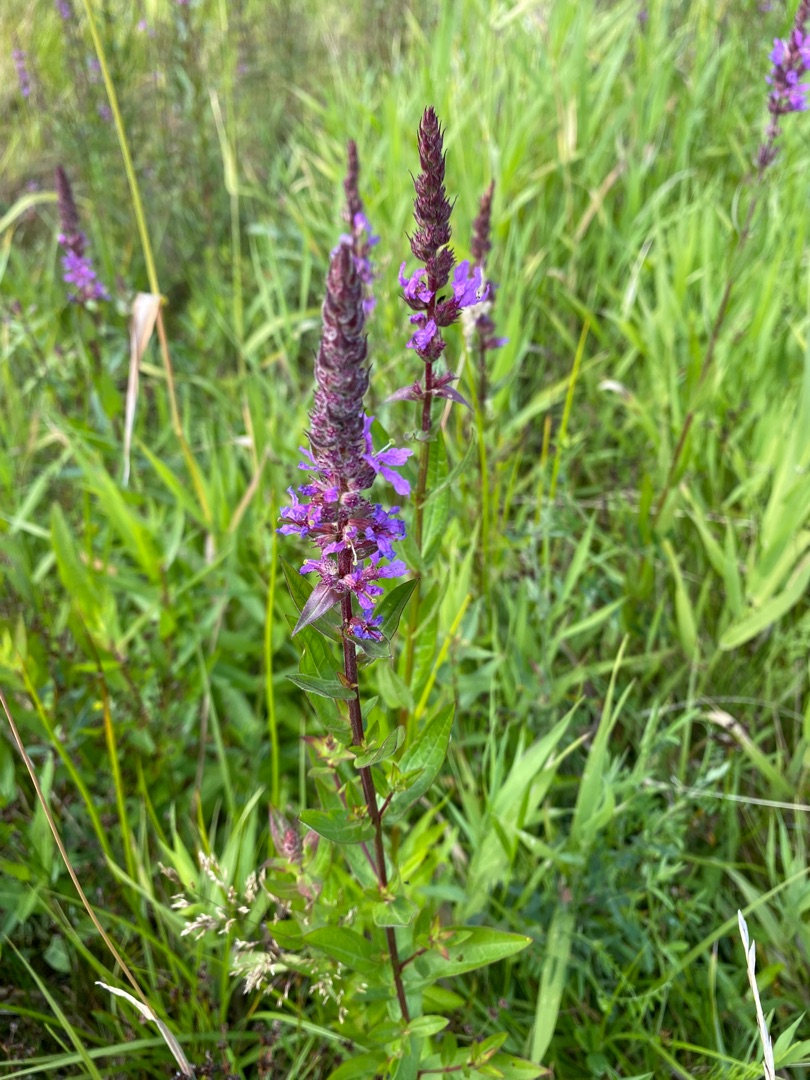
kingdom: Plantae
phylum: Tracheophyta
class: Magnoliopsida
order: Myrtales
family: Lythraceae
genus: Lythrum
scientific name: Lythrum salicaria
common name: Kattehale
